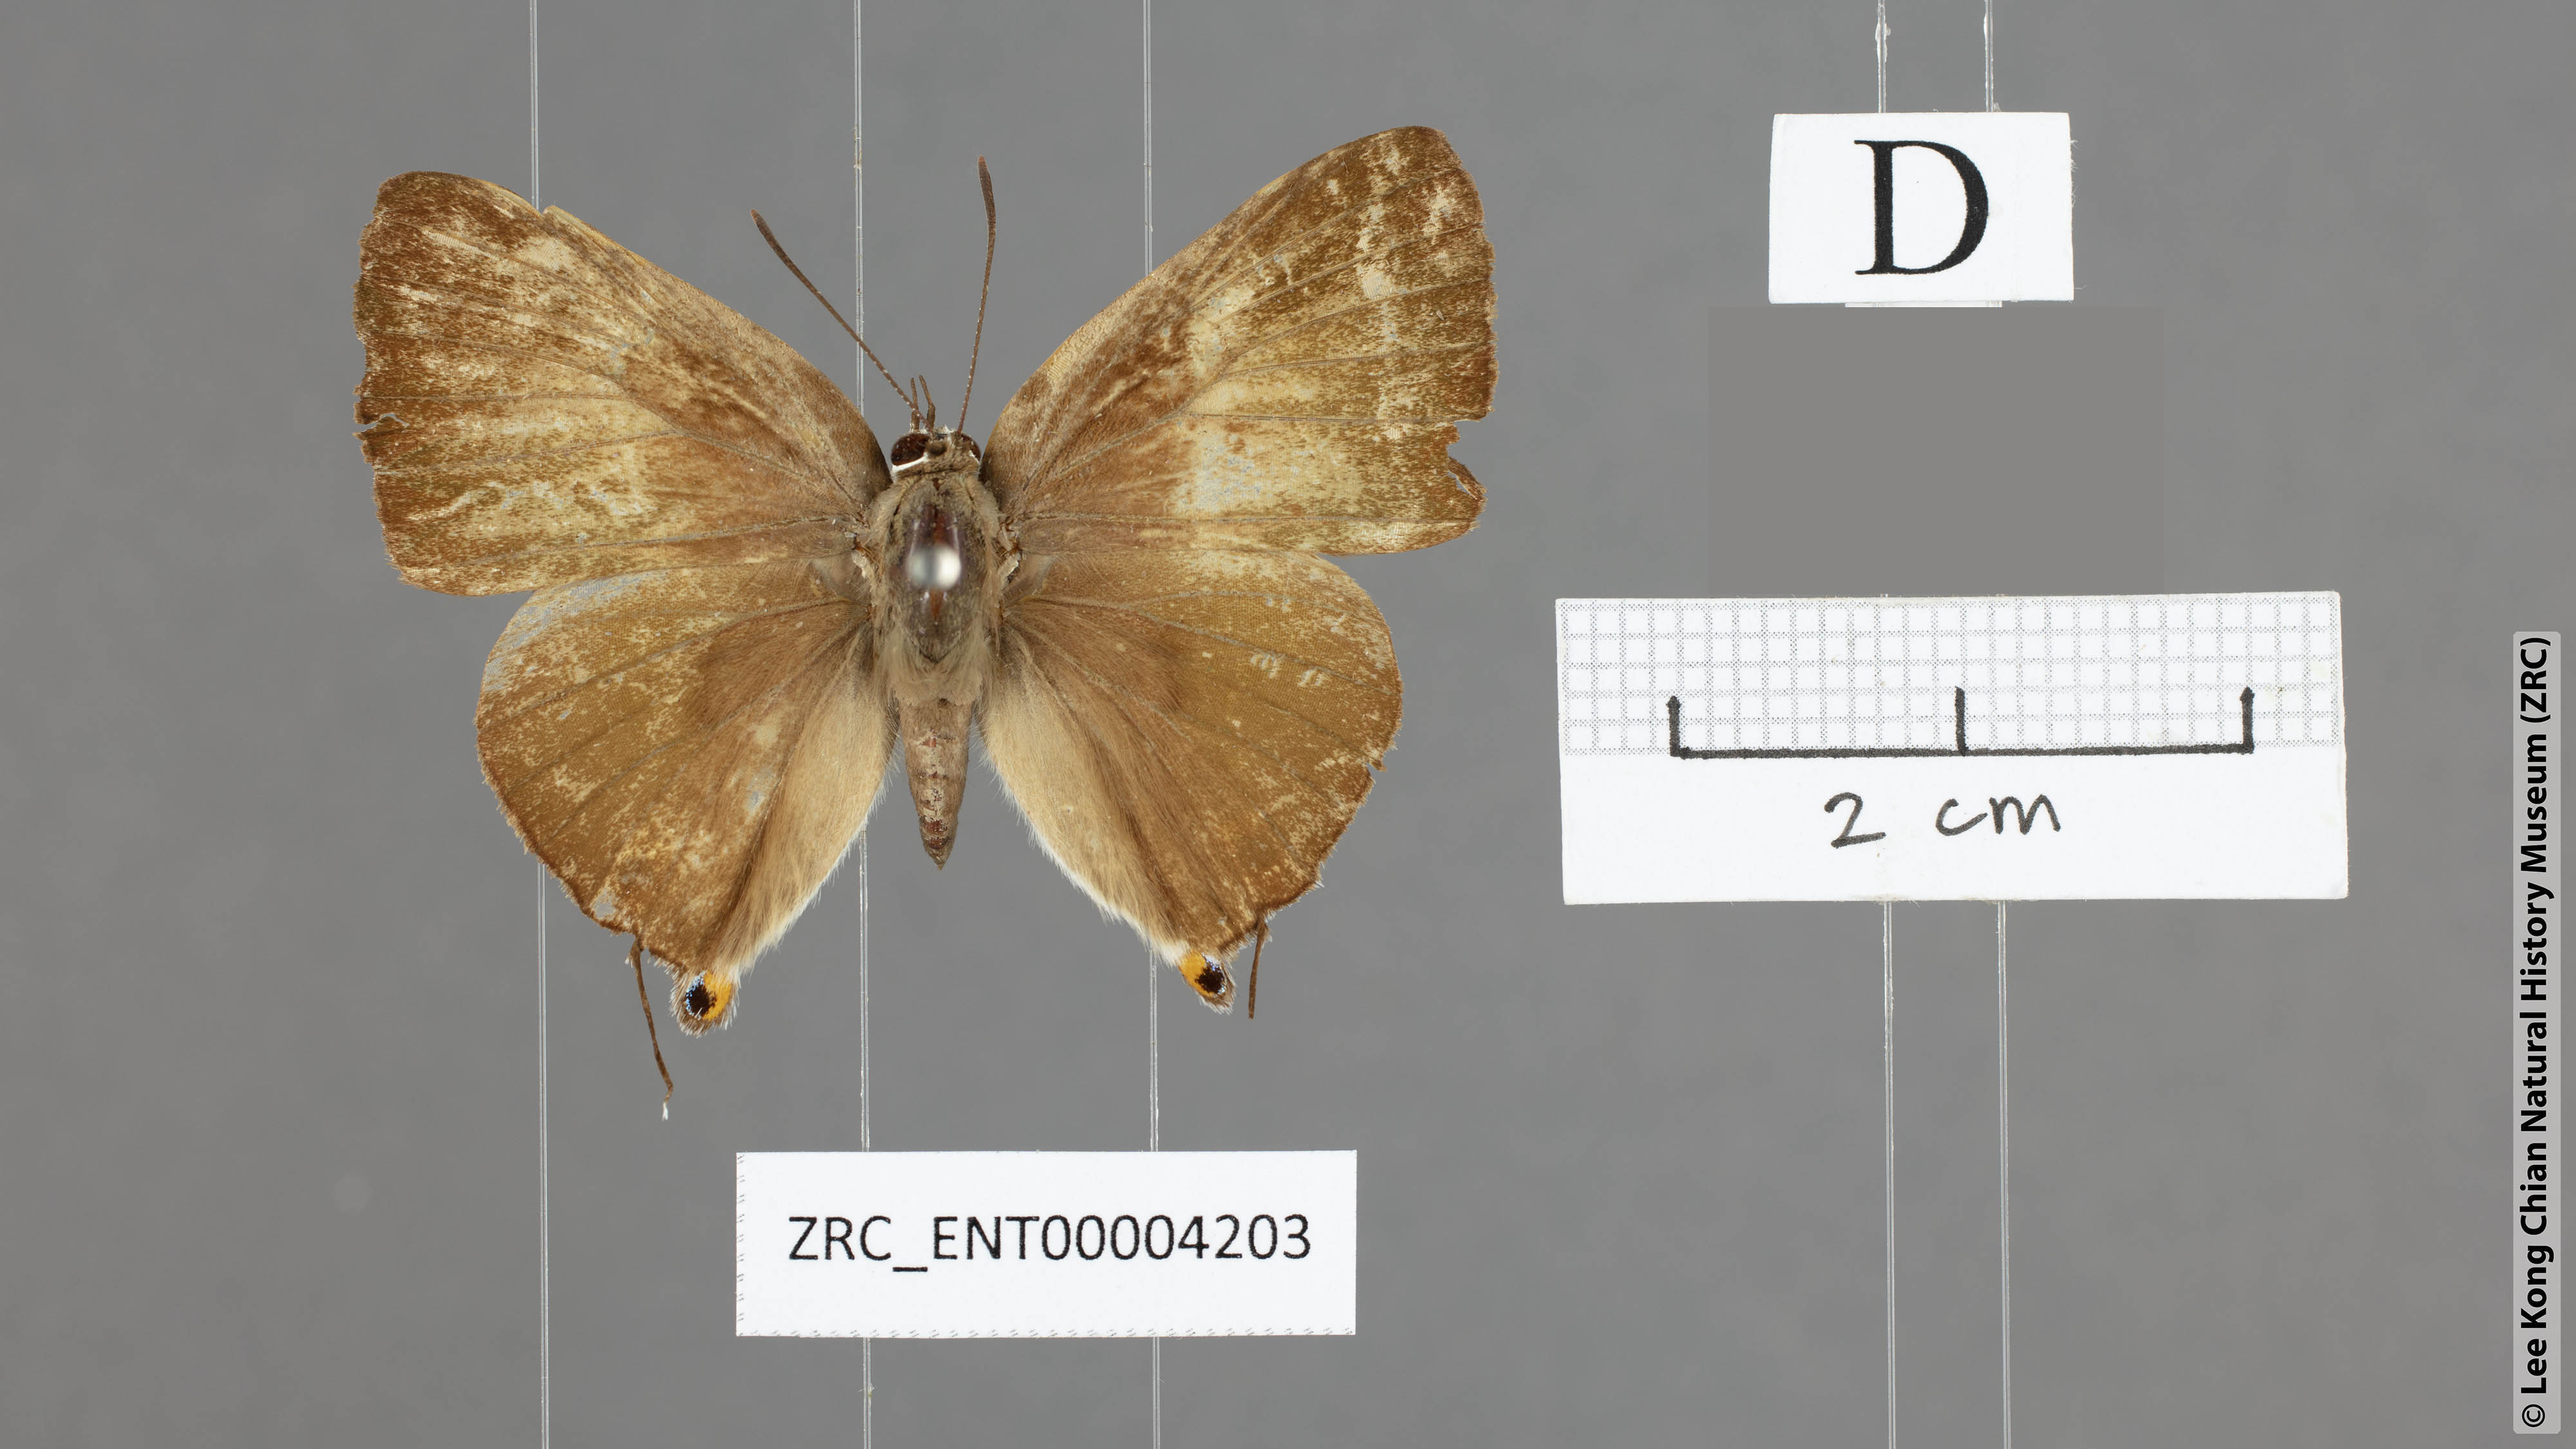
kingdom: Animalia
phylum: Arthropoda
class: Insecta
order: Lepidoptera
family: Lycaenidae
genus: Deudorix
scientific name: Deudorix staudingeri
